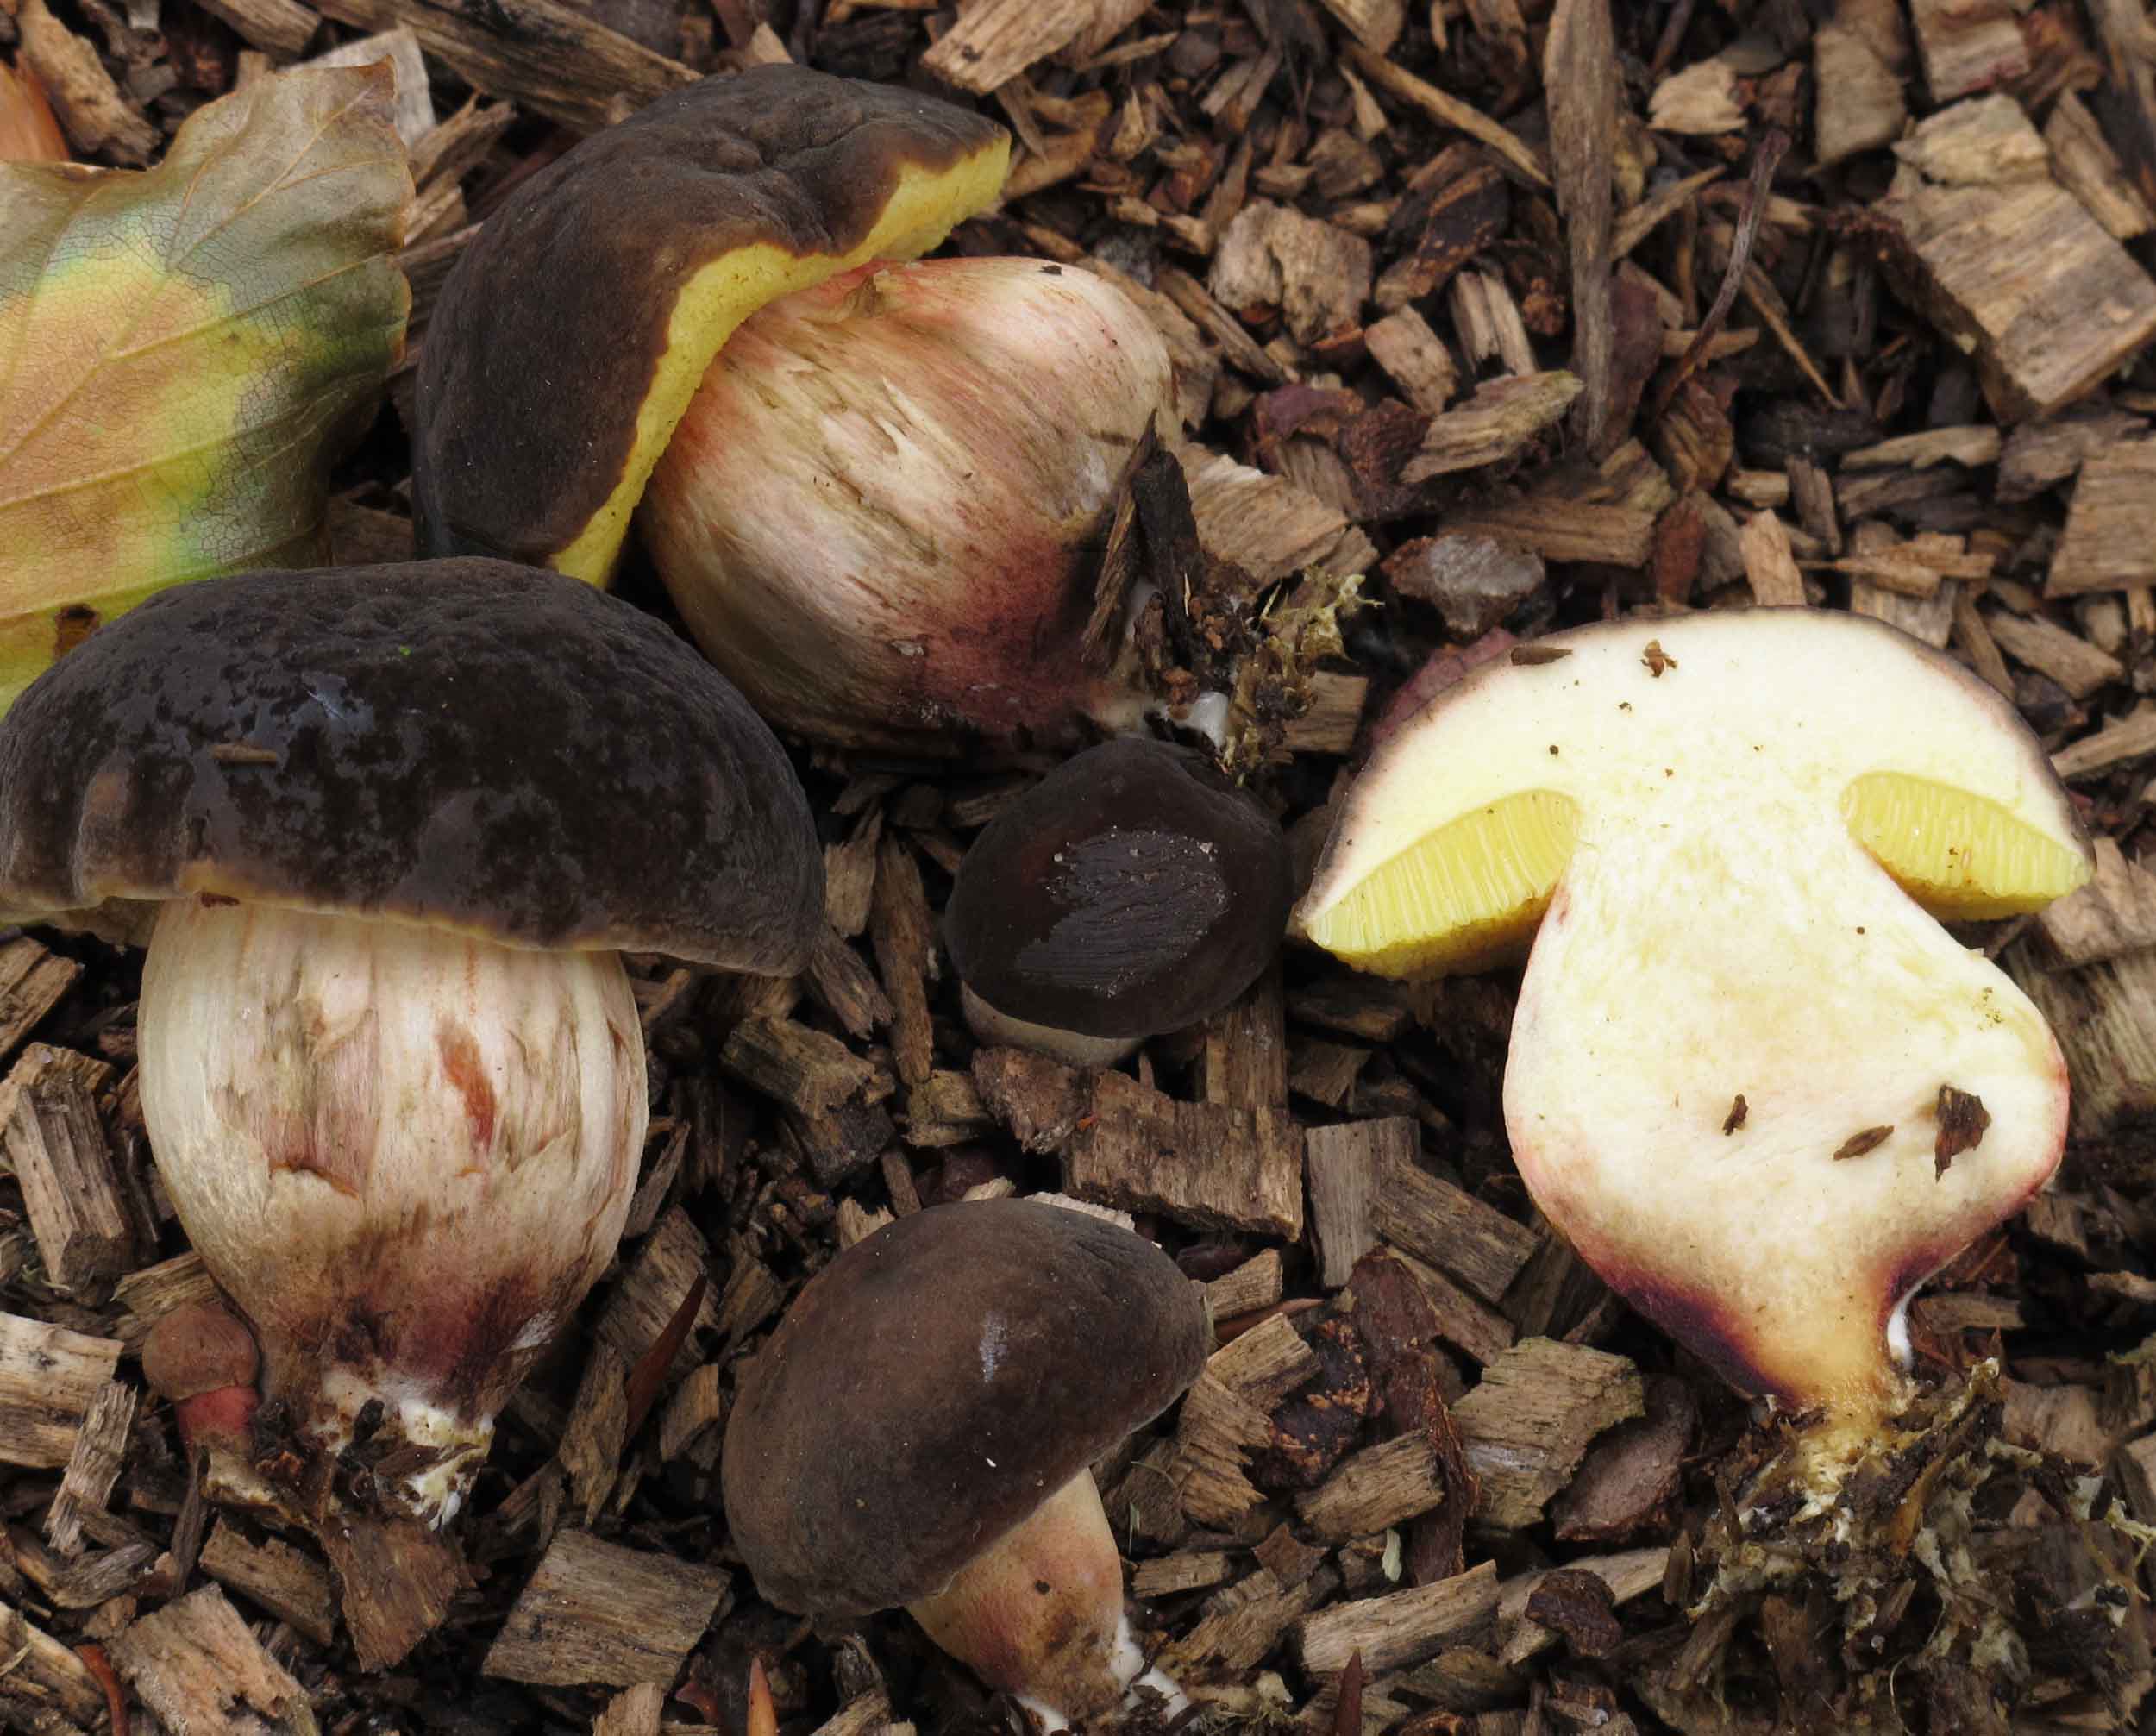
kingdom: Fungi
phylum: Basidiomycota
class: Agaricomycetes
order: Boletales
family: Boletaceae
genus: Xerocomellus
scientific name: Xerocomellus pruinatus
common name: dugget rørhat
